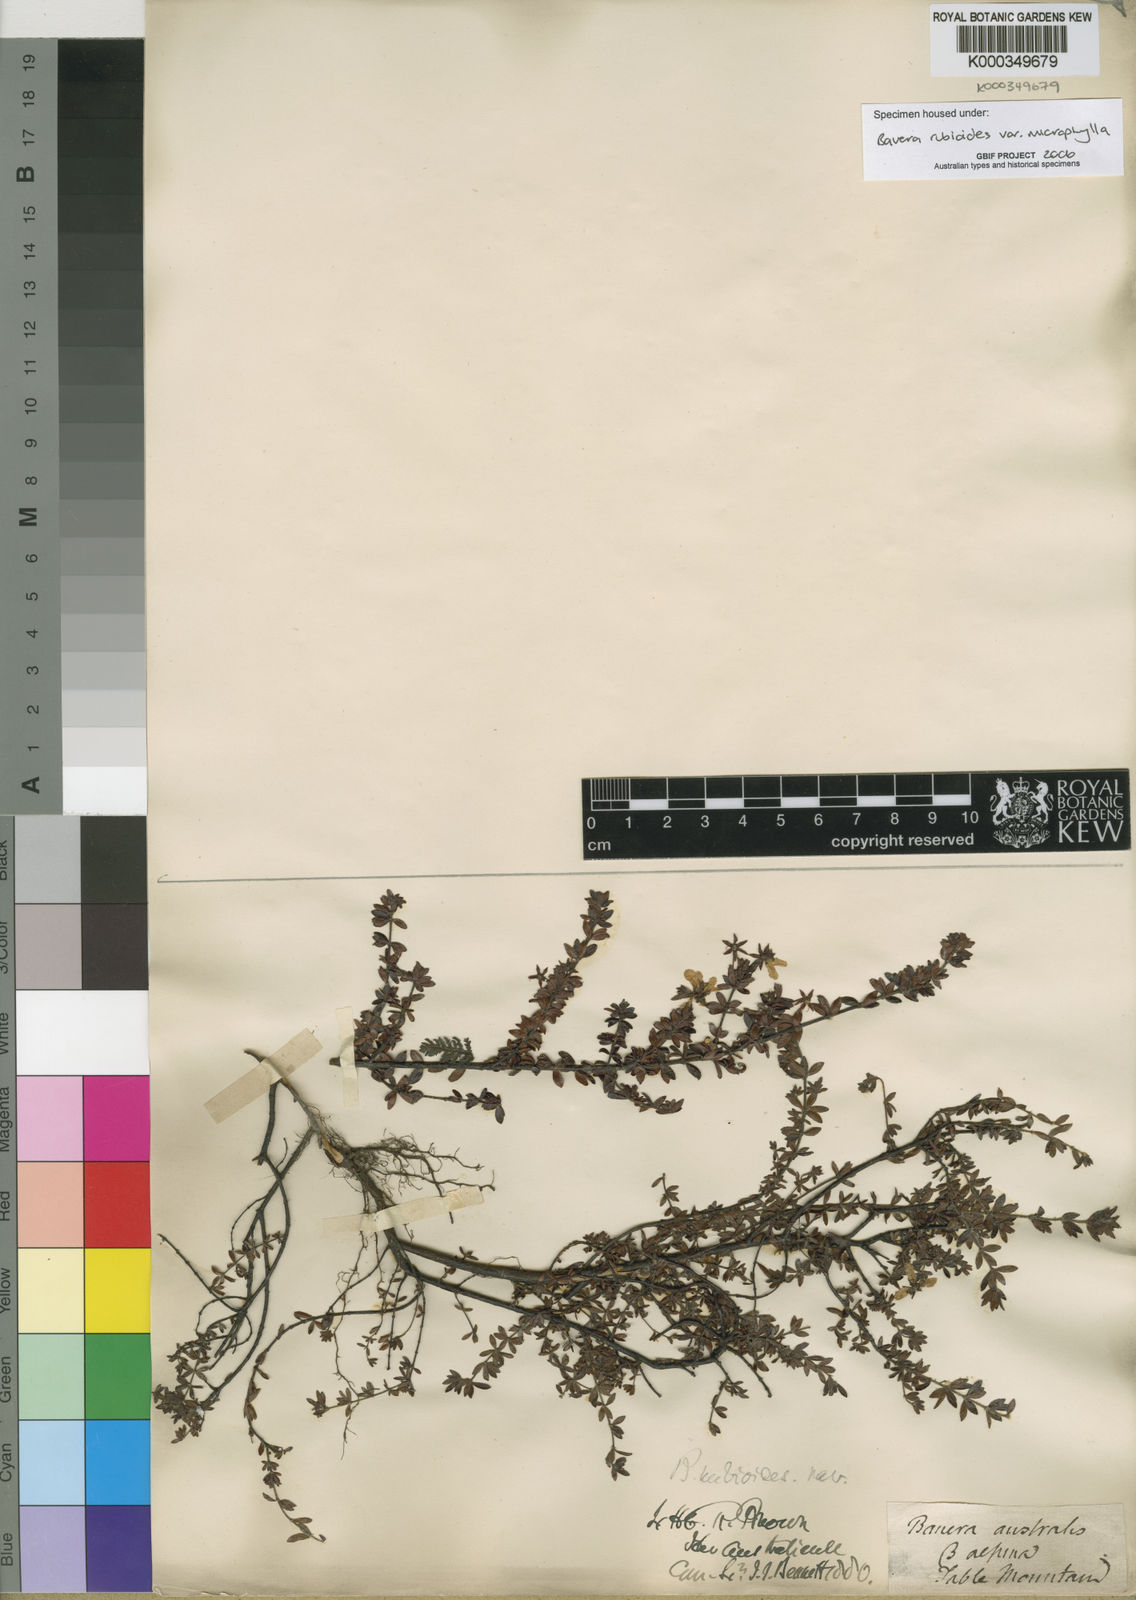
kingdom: Plantae
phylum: Tracheophyta
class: Magnoliopsida
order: Oxalidales
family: Cunoniaceae
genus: Bauera
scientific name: Bauera rubioides
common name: River-rose
